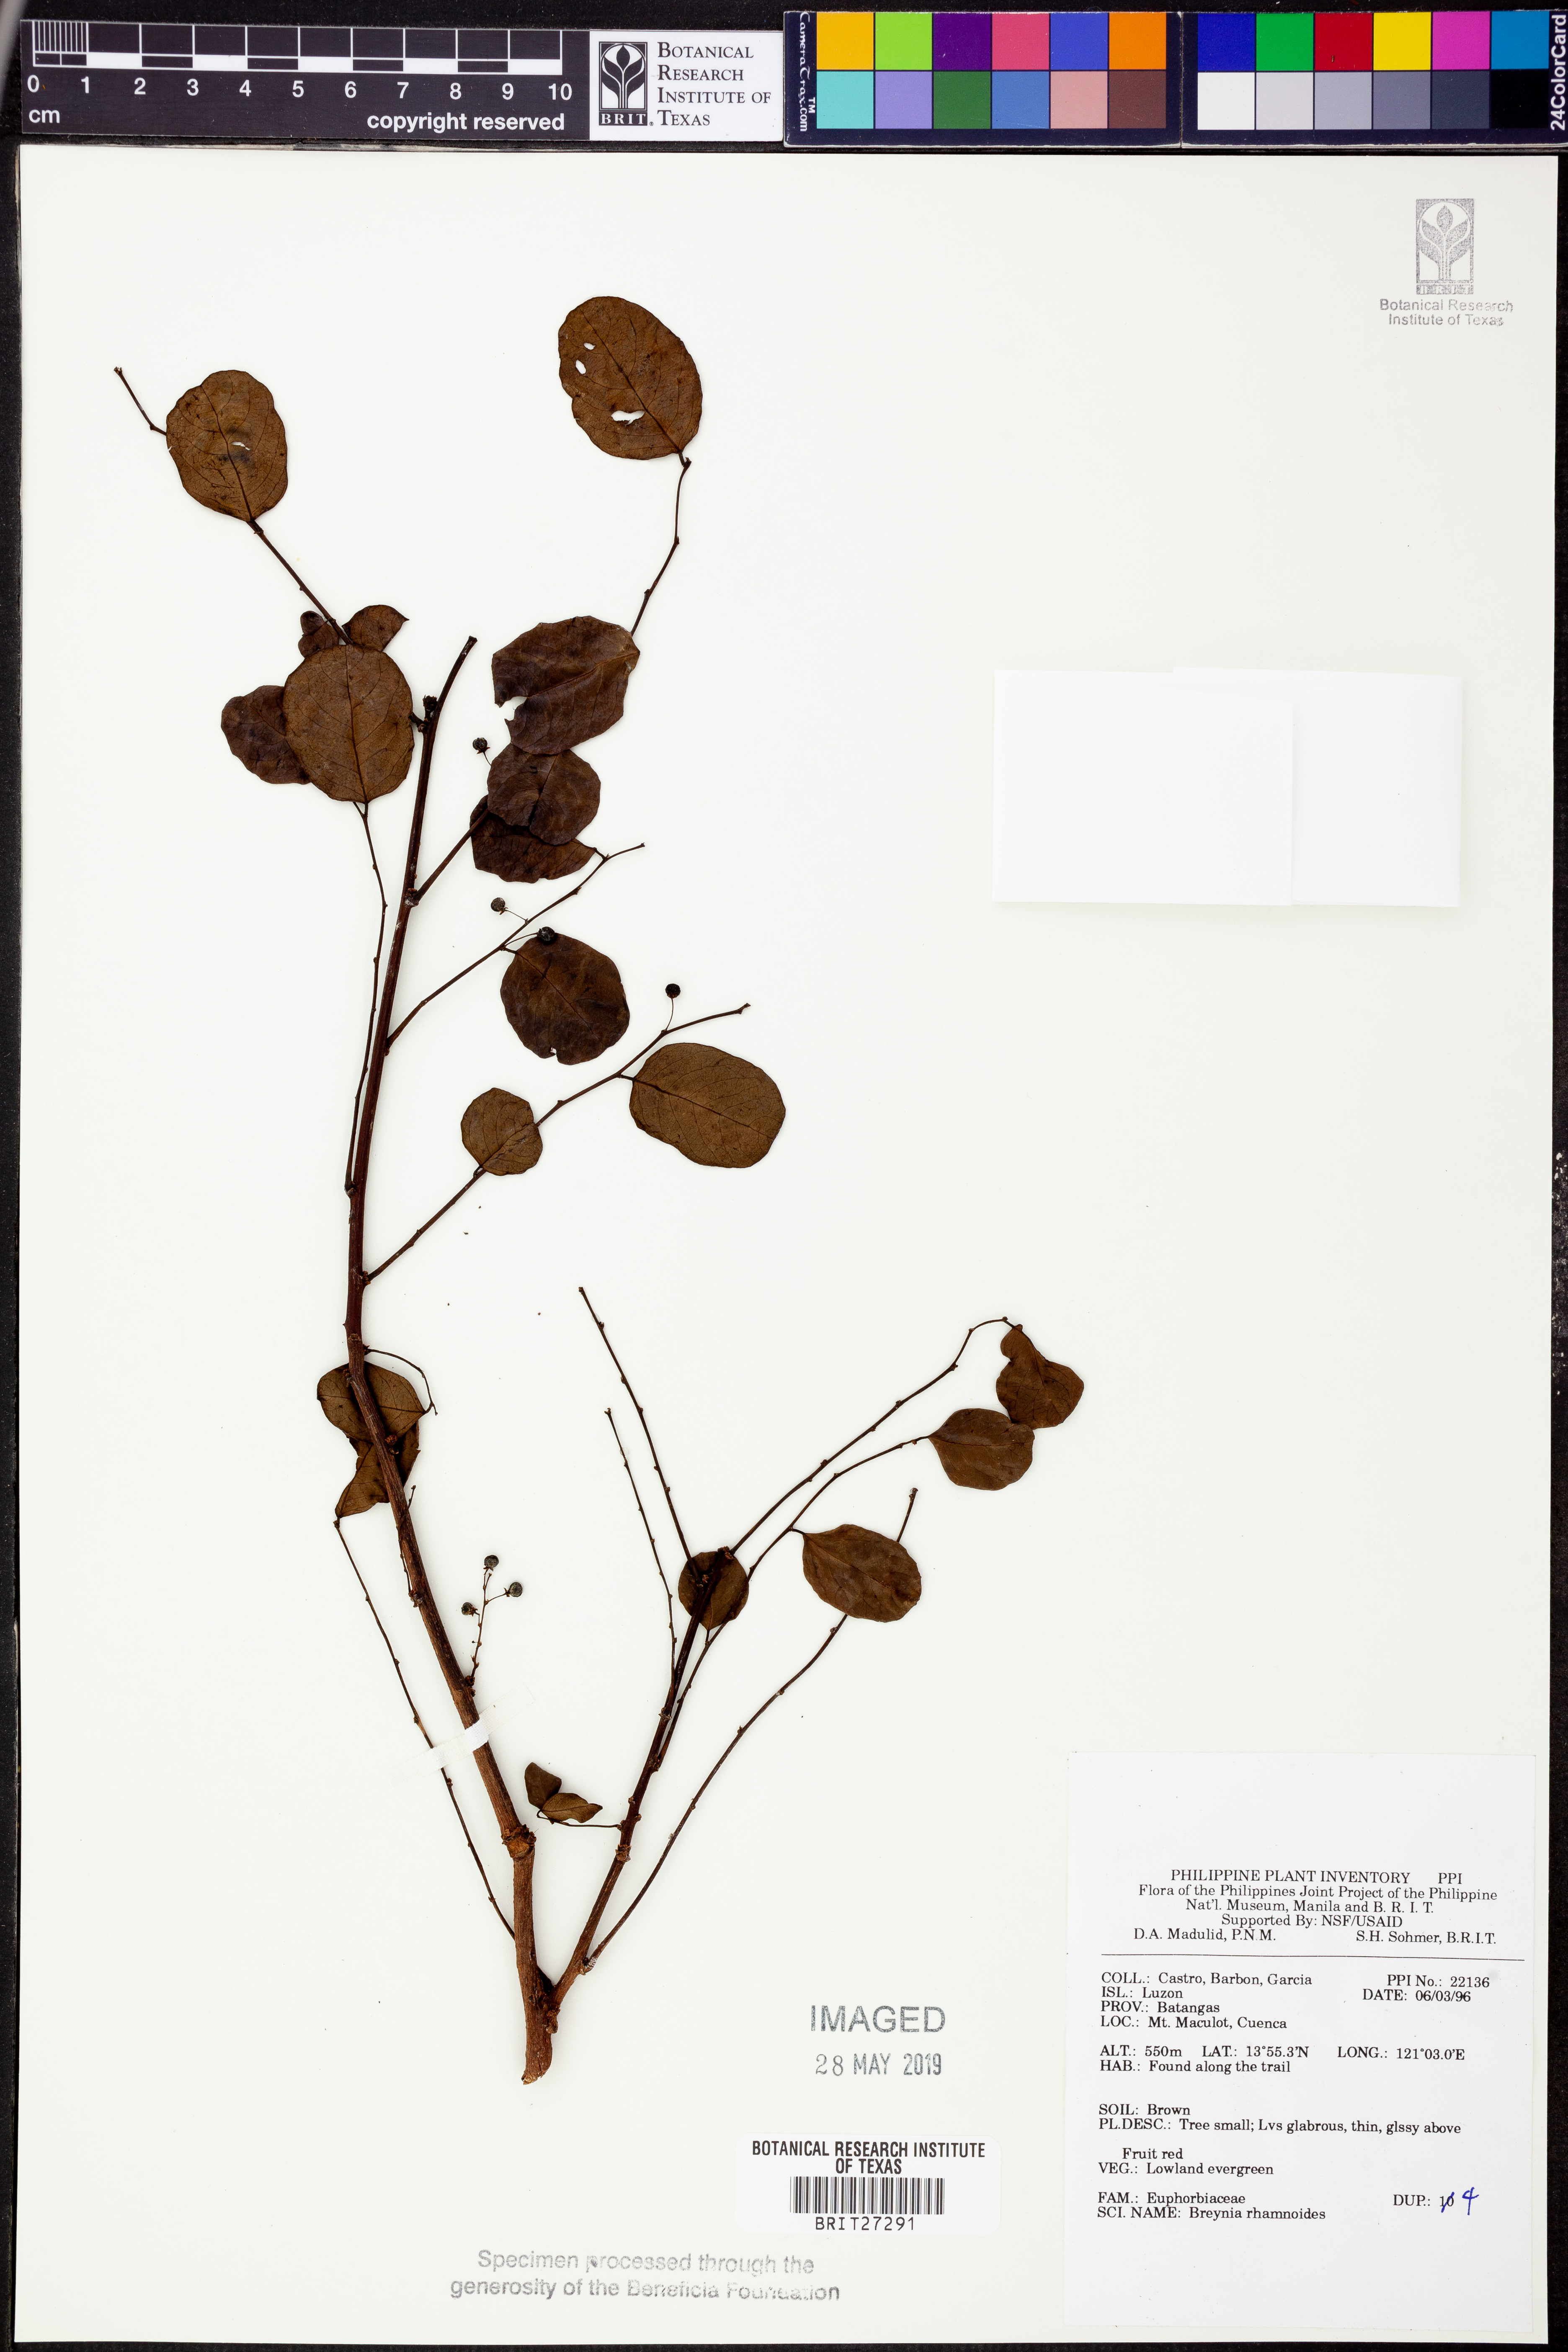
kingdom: Plantae
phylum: Tracheophyta
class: Magnoliopsida
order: Malpighiales
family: Phyllanthaceae
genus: Breynia
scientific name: Breynia vitis-idaea
